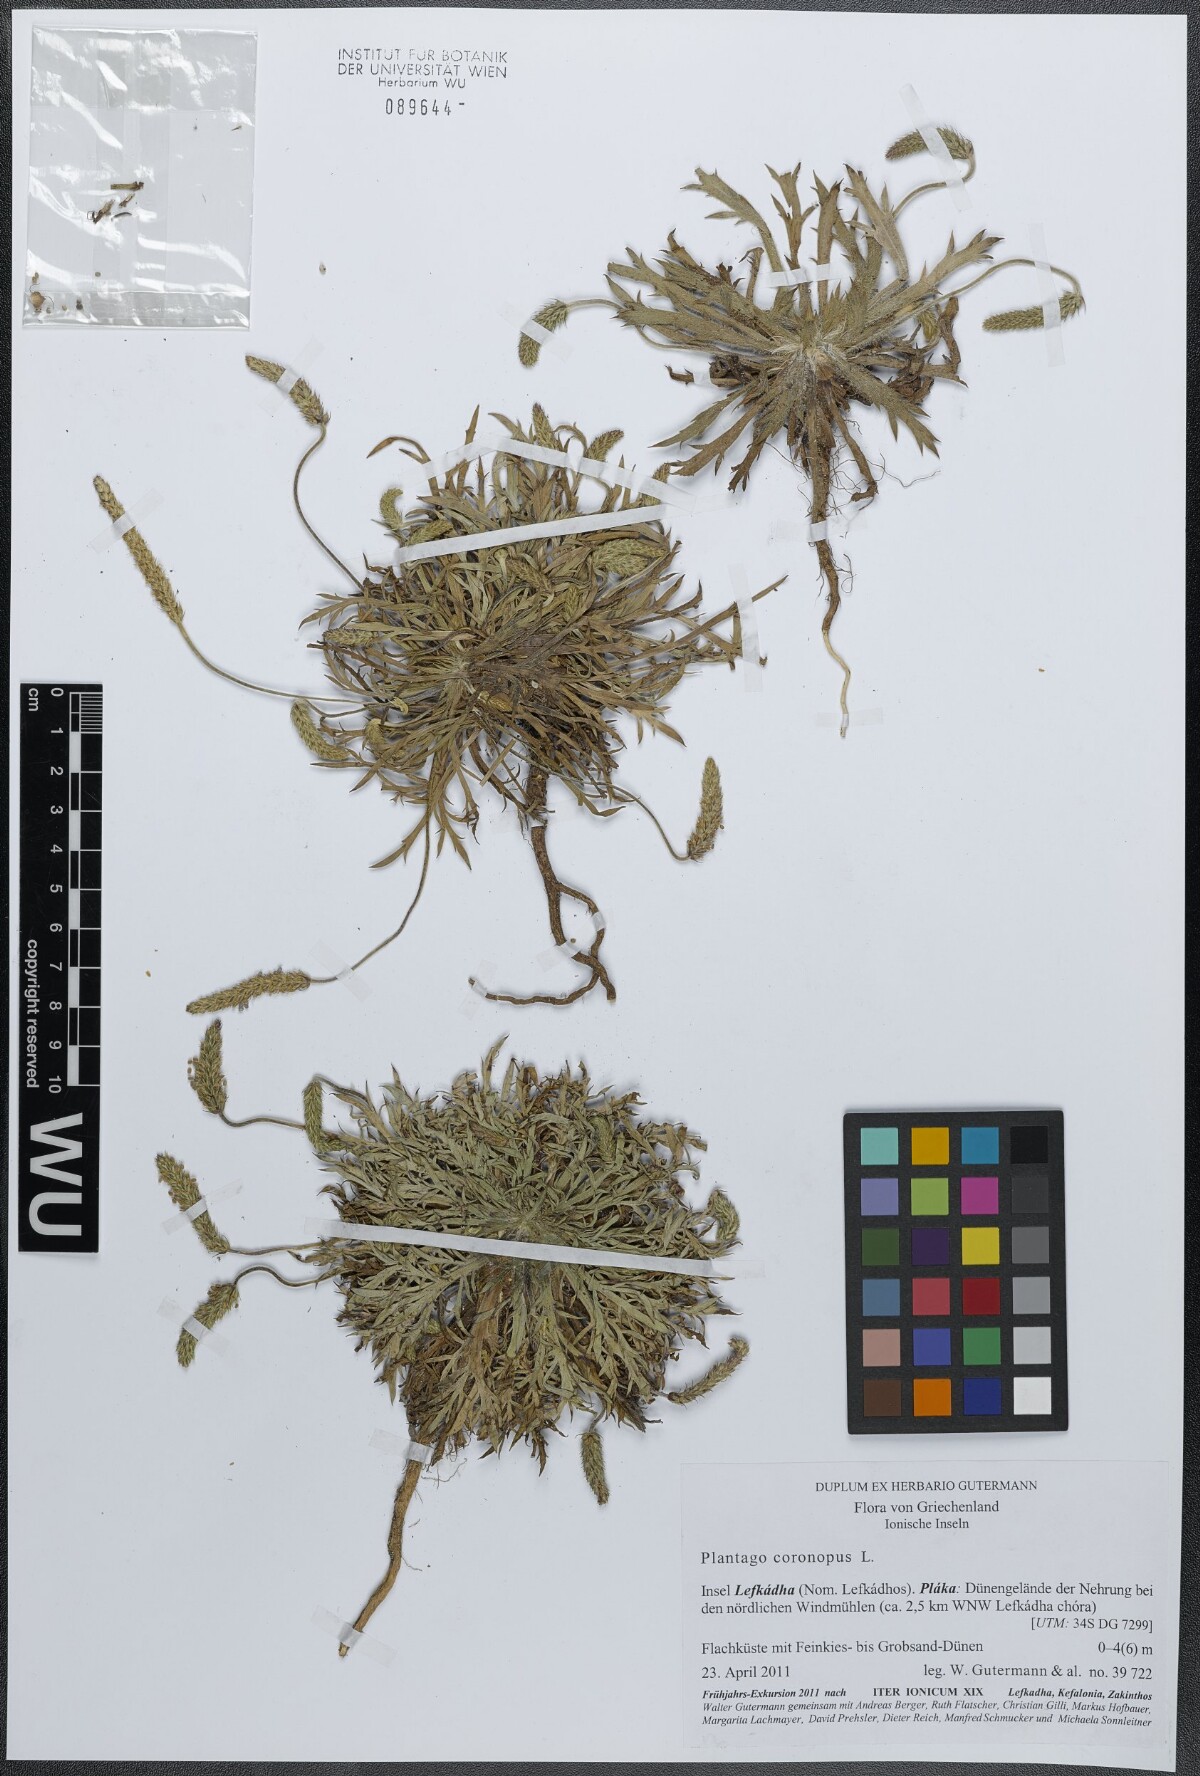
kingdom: Plantae
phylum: Tracheophyta
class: Magnoliopsida
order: Lamiales
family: Plantaginaceae
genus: Plantago
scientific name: Plantago coronopus
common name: Buck's-horn plantain
